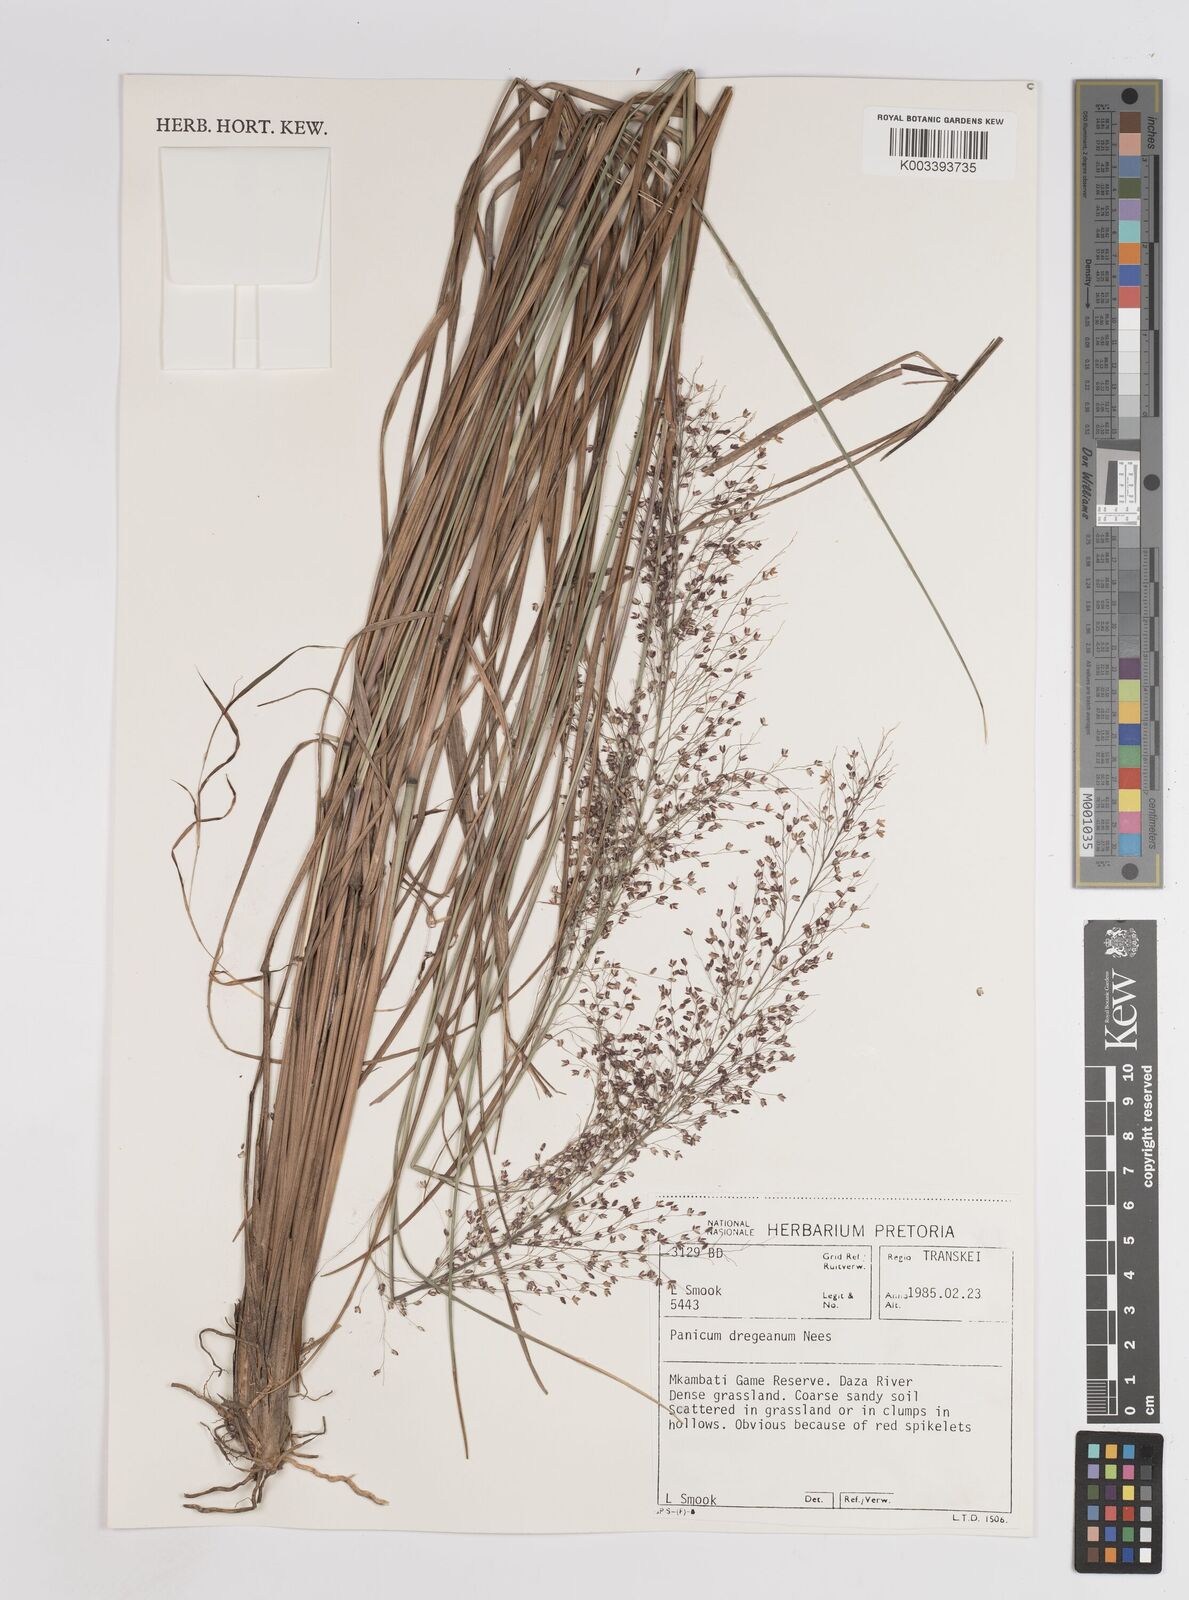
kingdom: Plantae
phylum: Tracheophyta
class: Liliopsida
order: Poales
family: Poaceae
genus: Panicum
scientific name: Panicum dregeanum
